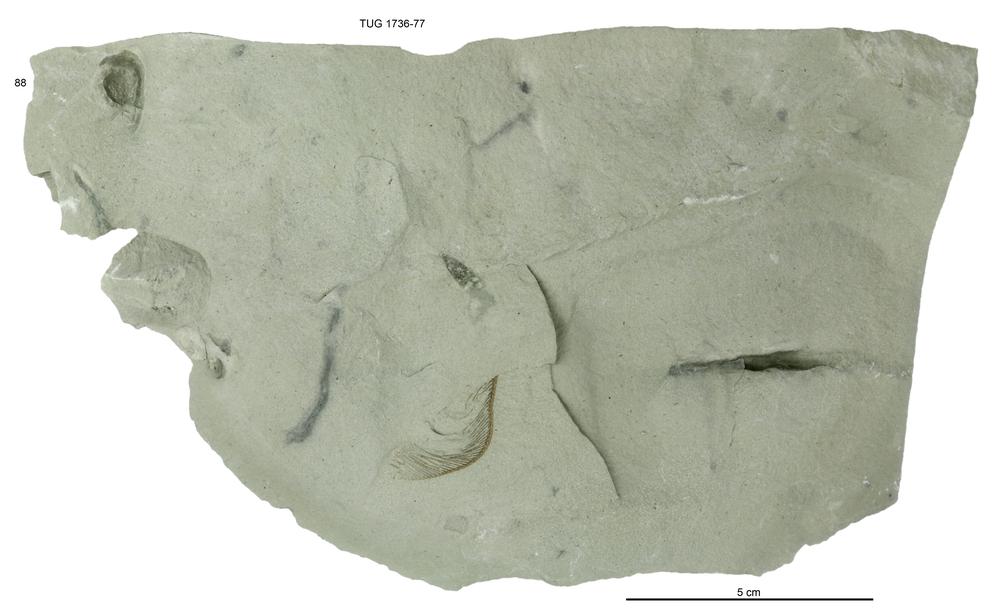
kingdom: Animalia
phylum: Echinodermata
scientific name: Echinodermata
